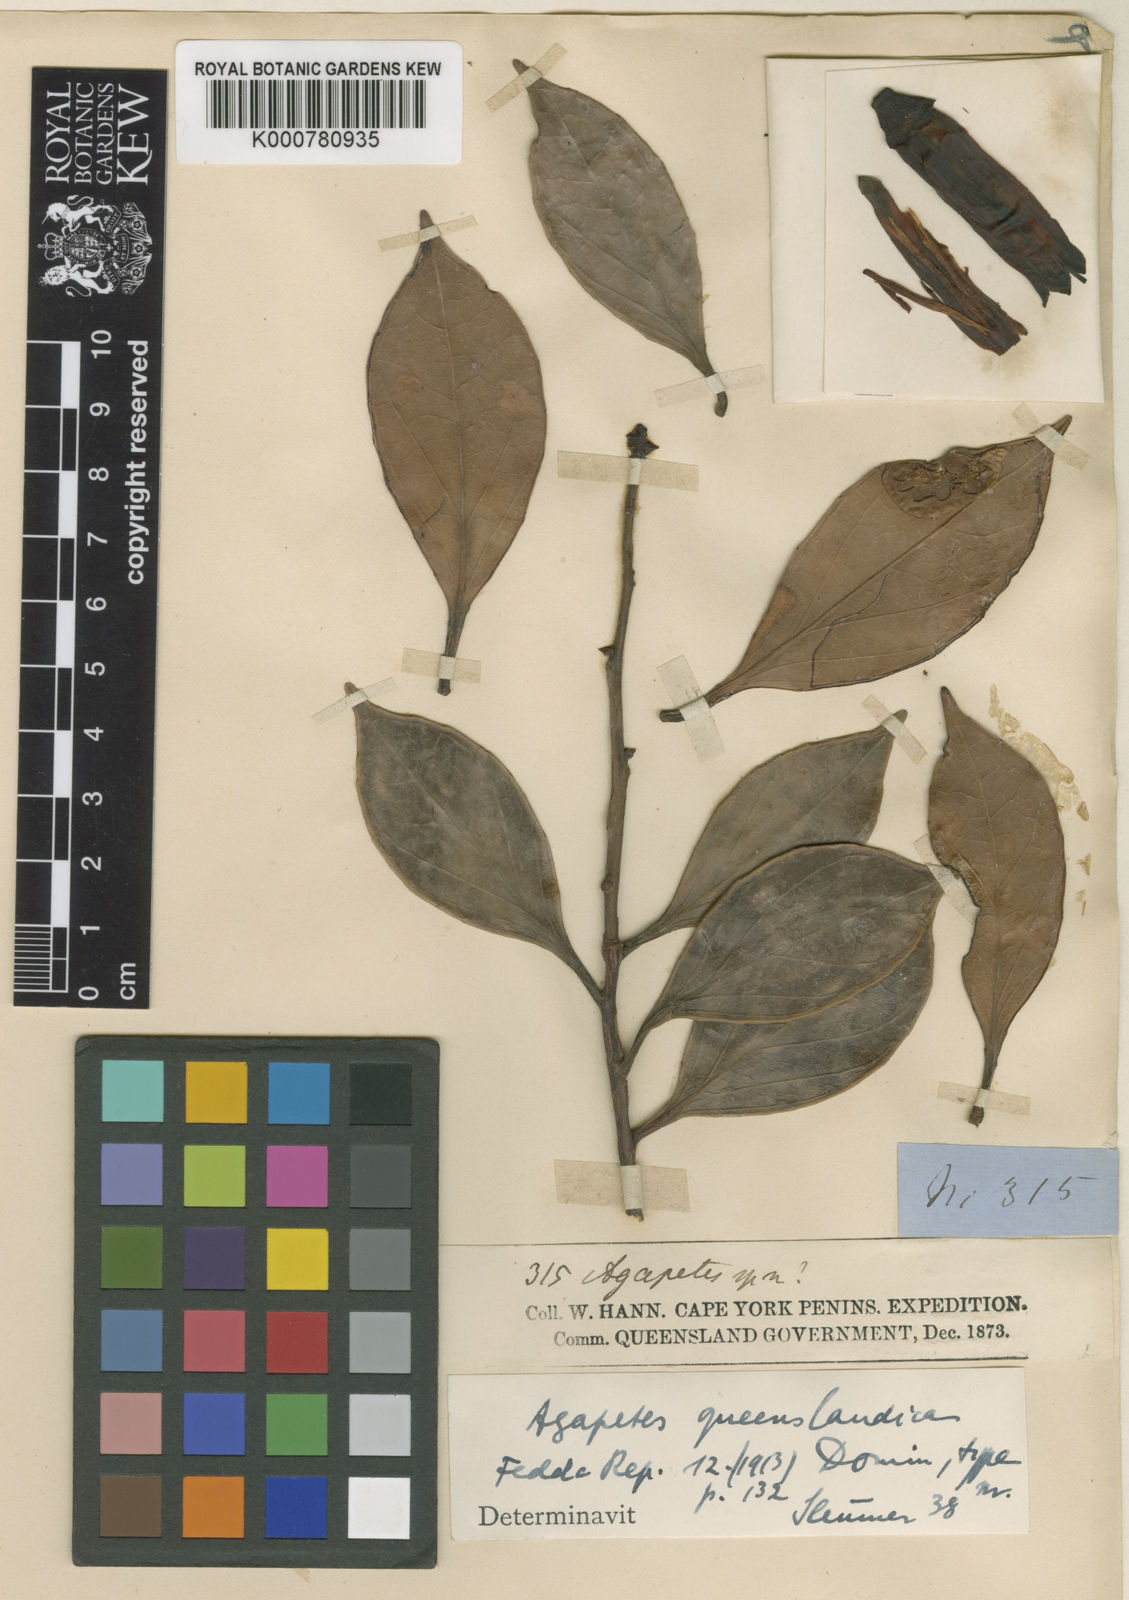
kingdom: Plantae
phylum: Tracheophyta
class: Magnoliopsida
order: Ericales
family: Ericaceae
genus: Paphia
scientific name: Paphia meiniana
